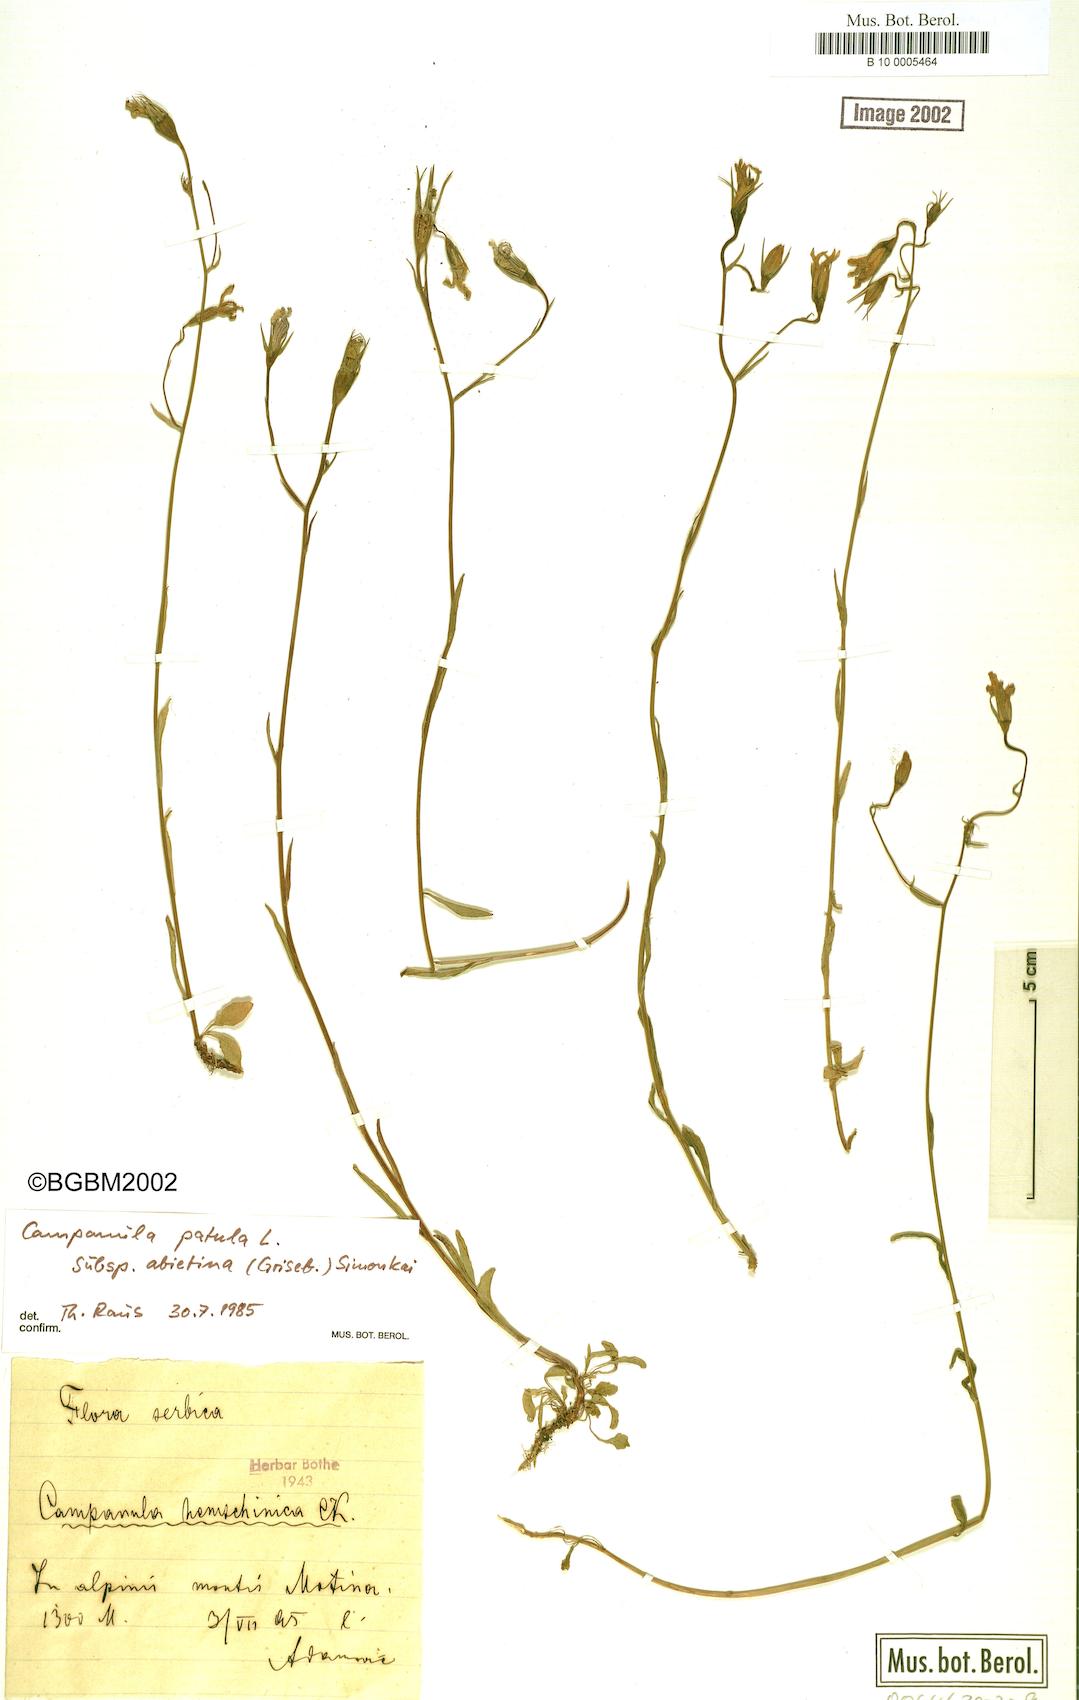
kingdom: Plantae
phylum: Tracheophyta
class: Magnoliopsida
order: Asterales
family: Campanulaceae
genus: Campanula
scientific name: Campanula patula
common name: Spreading bellflower
